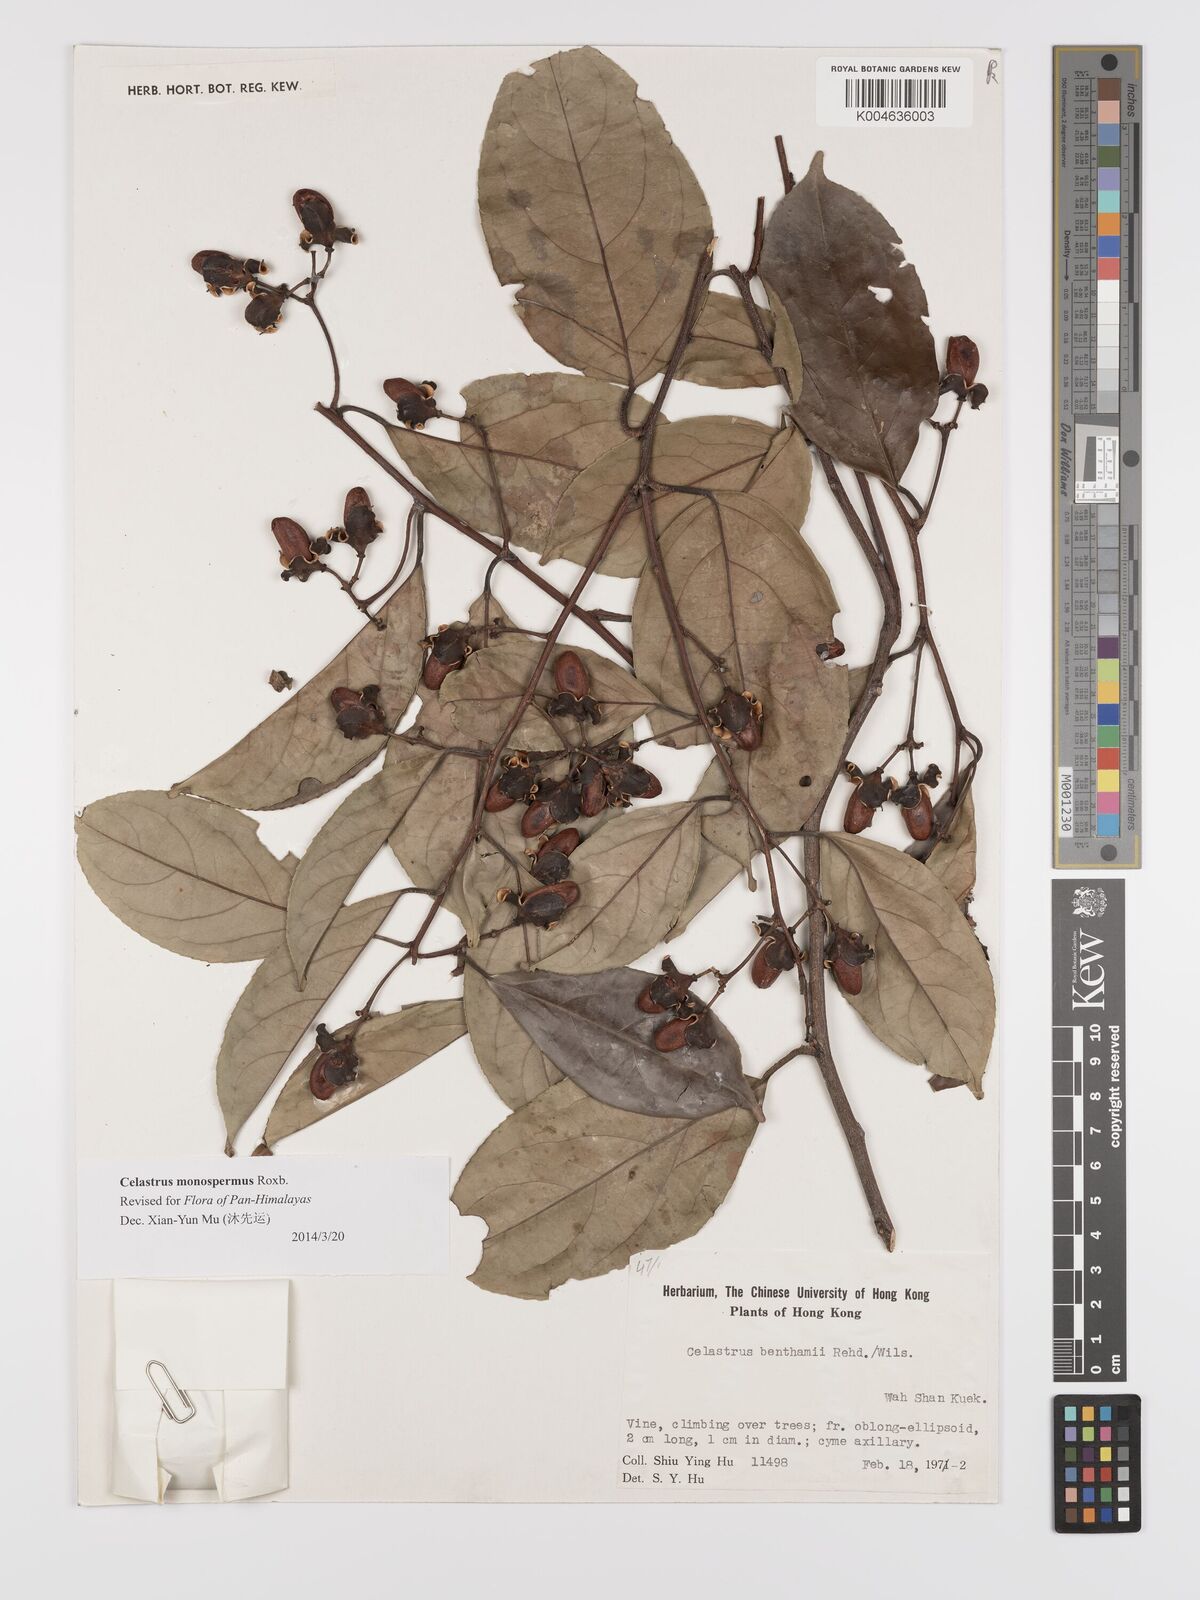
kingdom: Plantae
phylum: Tracheophyta
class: Magnoliopsida
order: Celastrales
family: Celastraceae
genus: Celastrus
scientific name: Celastrus monospermus
